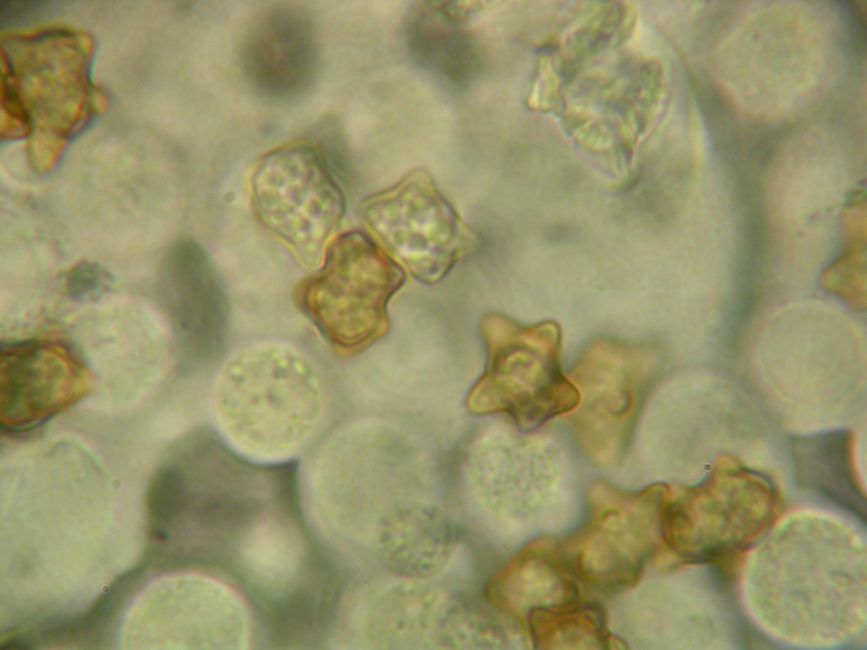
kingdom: Fungi
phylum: Basidiomycota
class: Agaricomycetes
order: Agaricales
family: Inocybaceae
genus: Inocybe
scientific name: Inocybe napipes
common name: roeknoldet trævlhat
